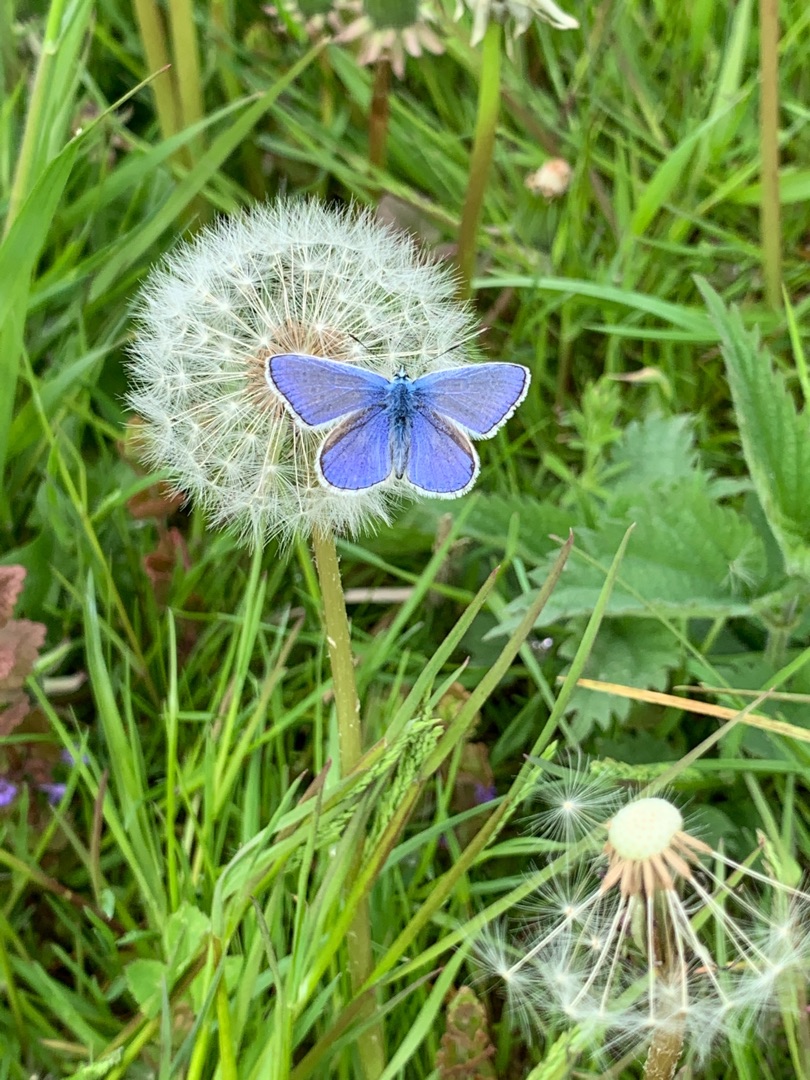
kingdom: Animalia
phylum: Arthropoda
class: Insecta
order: Lepidoptera
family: Lycaenidae
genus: Polyommatus
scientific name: Polyommatus icarus
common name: Almindelig blåfugl
